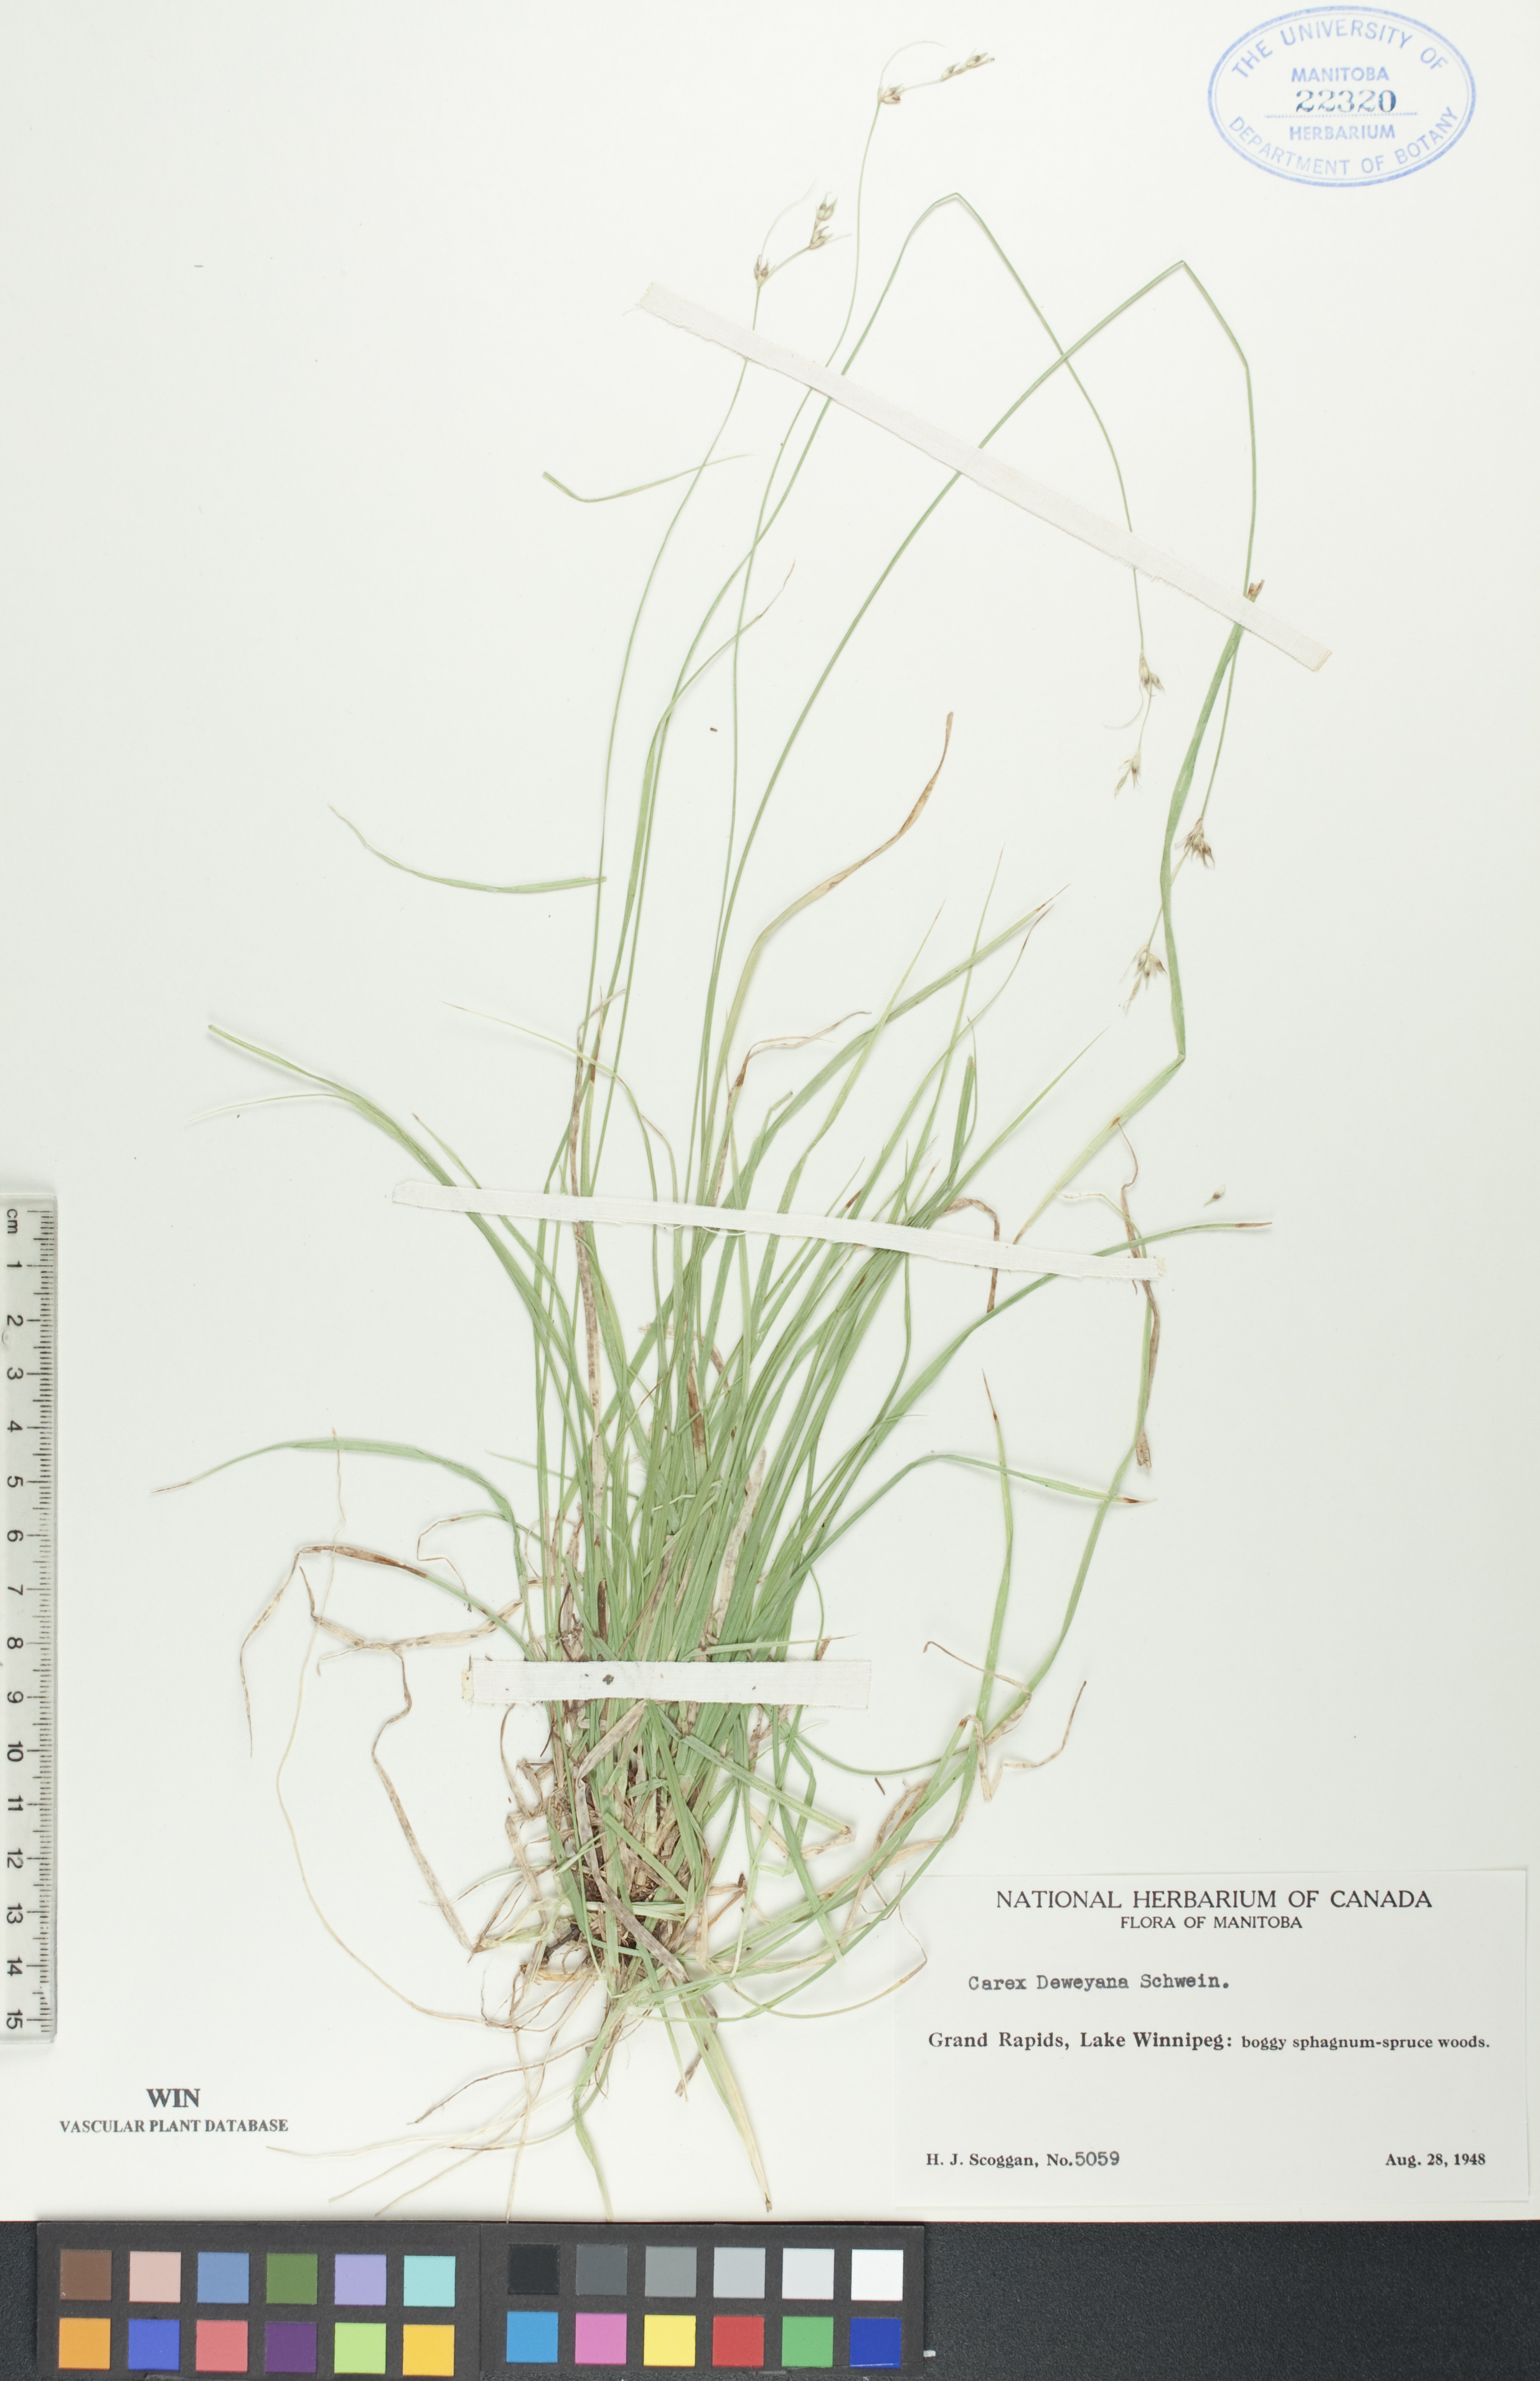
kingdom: Plantae
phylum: Tracheophyta
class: Liliopsida
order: Poales
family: Cyperaceae
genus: Carex
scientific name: Carex deweyana
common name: Dewey's sedge
